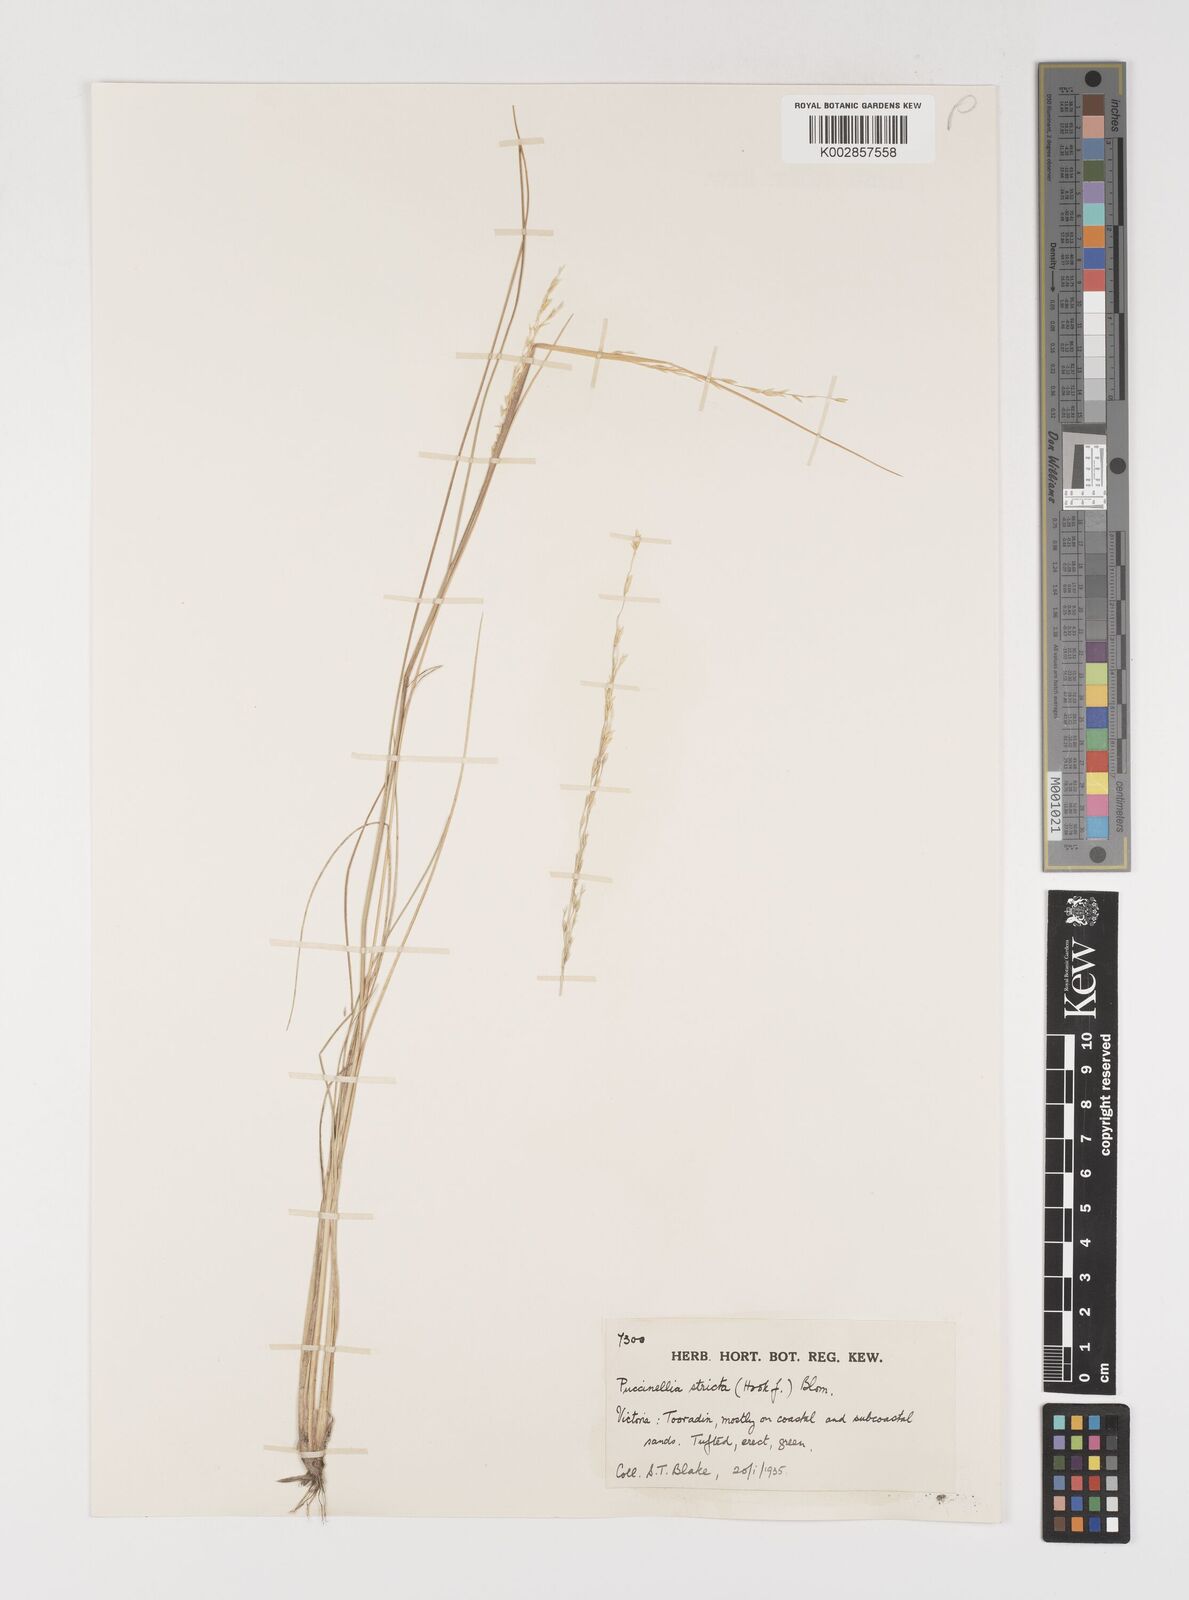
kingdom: Plantae
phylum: Tracheophyta
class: Liliopsida
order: Poales
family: Poaceae
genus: Puccinellia
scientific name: Puccinellia stricta
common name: Australian saltmarsh grass
